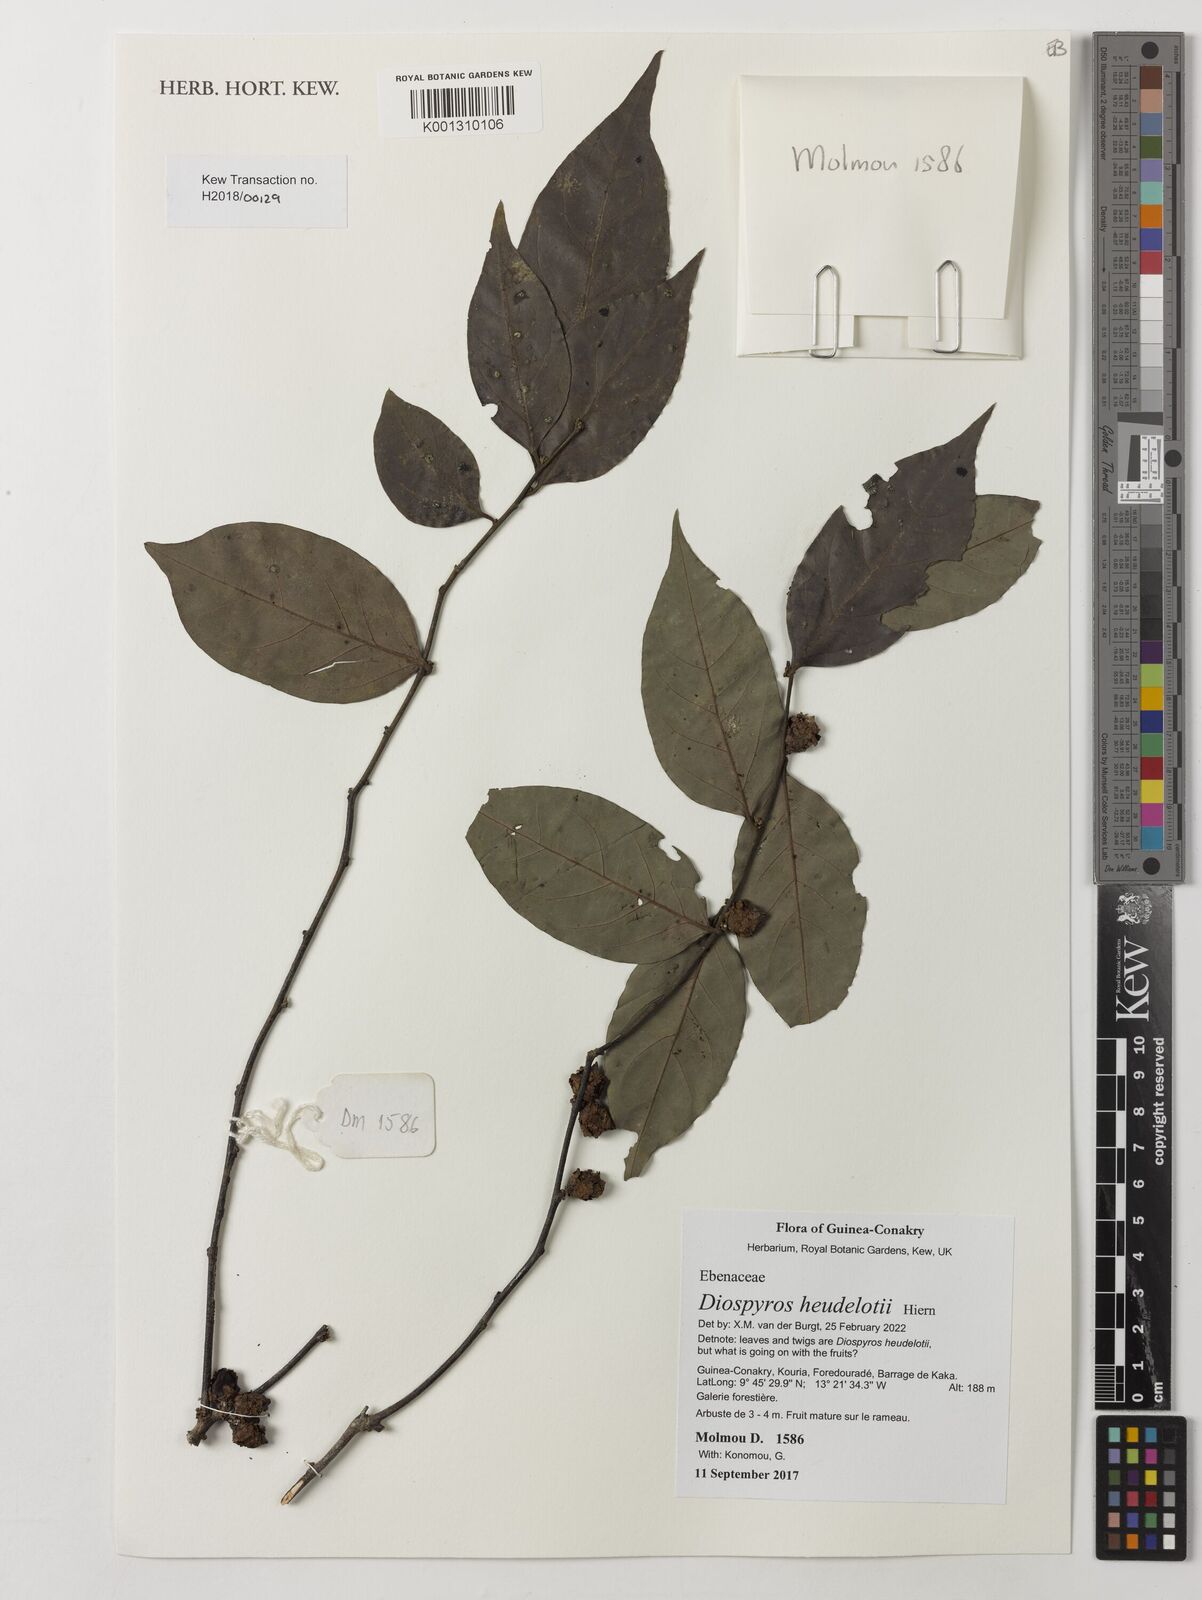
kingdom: Plantae
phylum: Tracheophyta
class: Magnoliopsida
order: Ericales
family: Ebenaceae
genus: Diospyros
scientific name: Diospyros heudelotii
